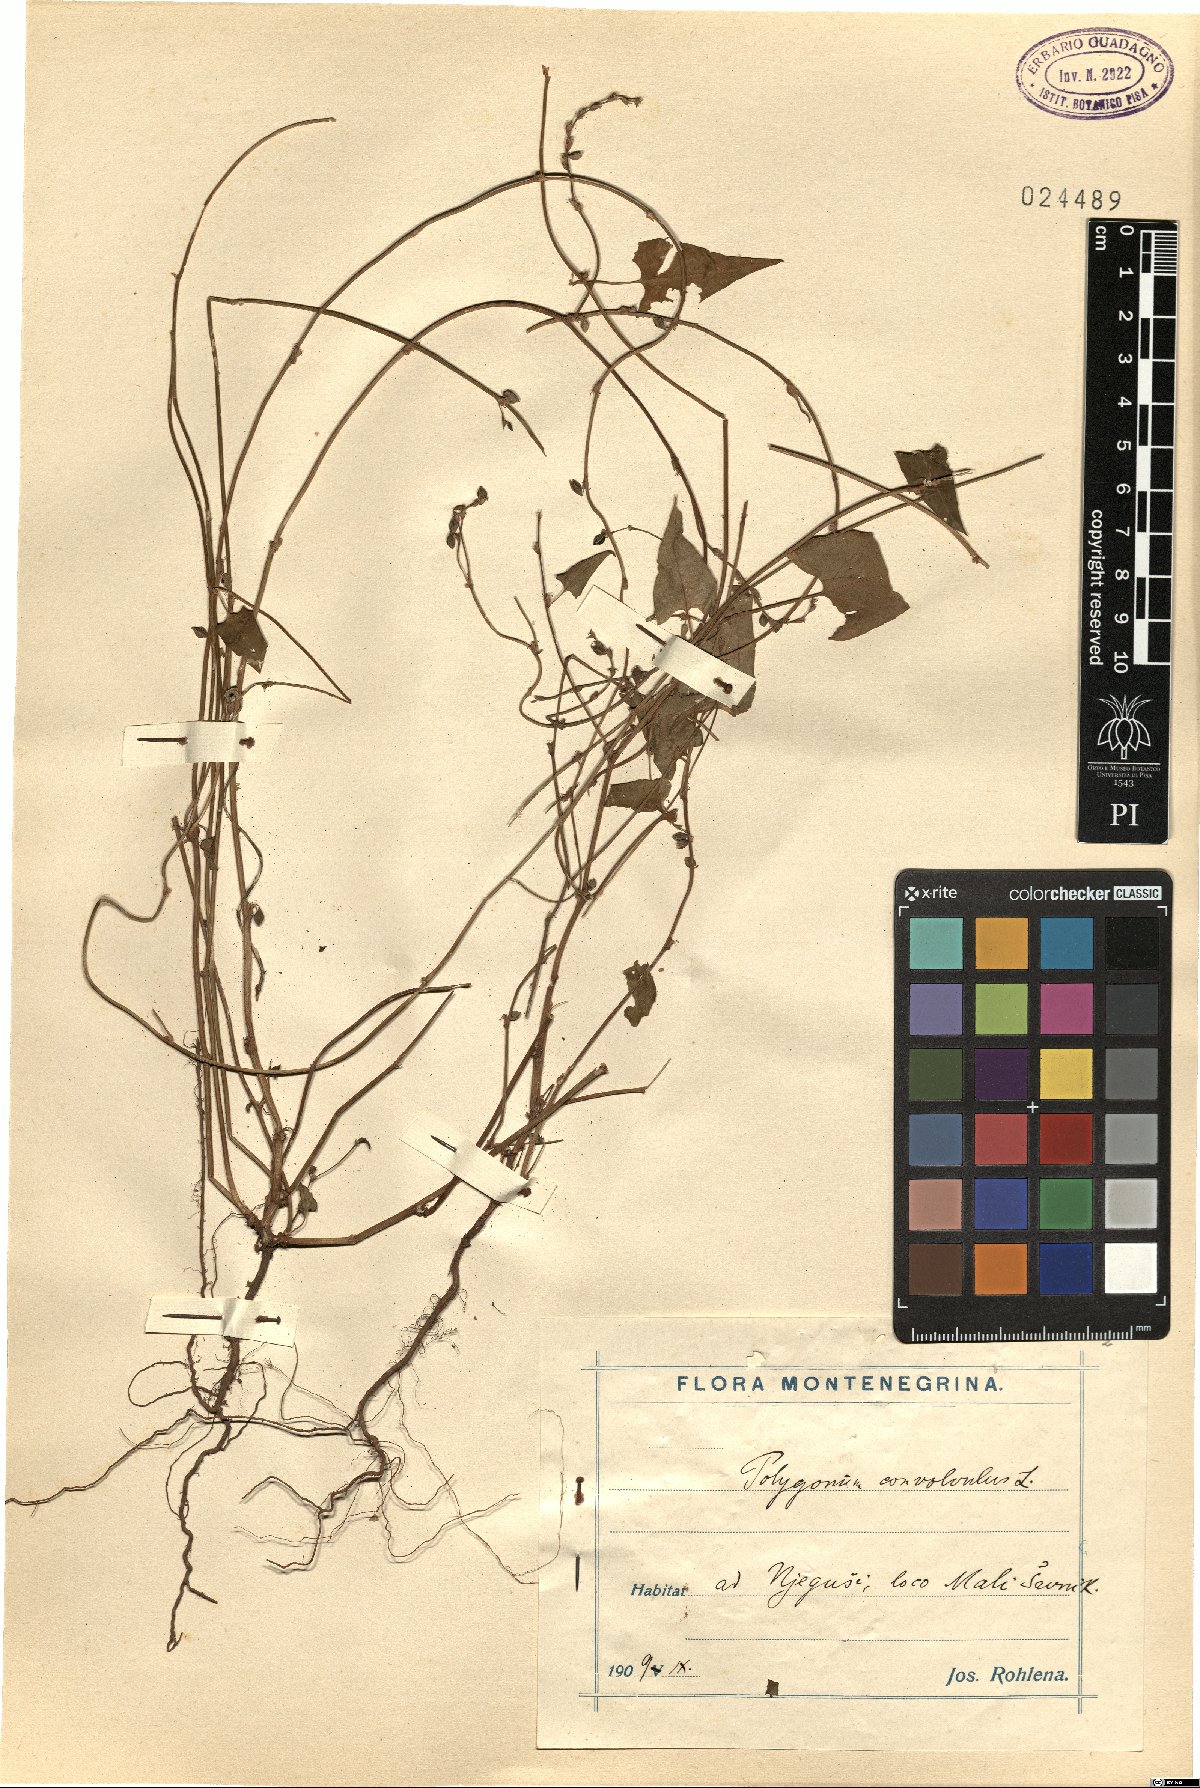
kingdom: Plantae
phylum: Tracheophyta
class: Magnoliopsida
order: Caryophyllales
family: Polygonaceae
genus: Fallopia
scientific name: Fallopia convolvulus
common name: Black bindweed
